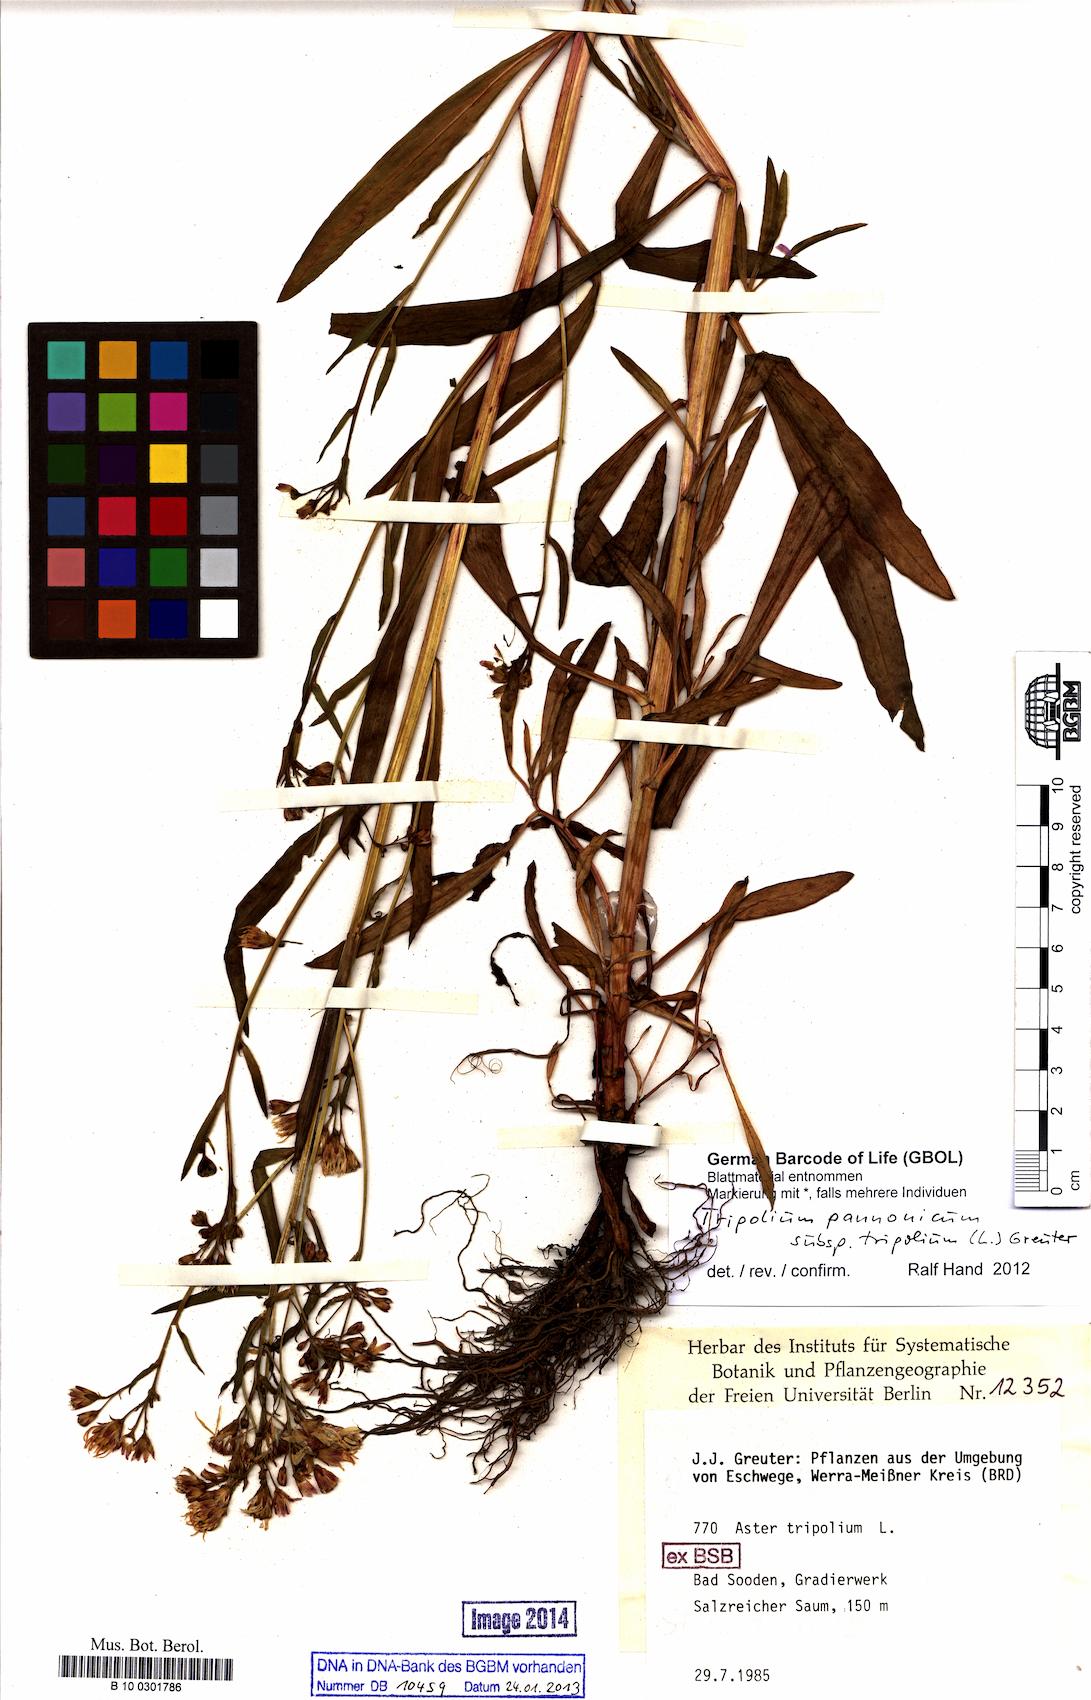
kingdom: Plantae
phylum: Tracheophyta
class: Magnoliopsida
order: Asterales
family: Asteraceae
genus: Tripolium
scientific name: Tripolium pannonicum
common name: Sea aster
